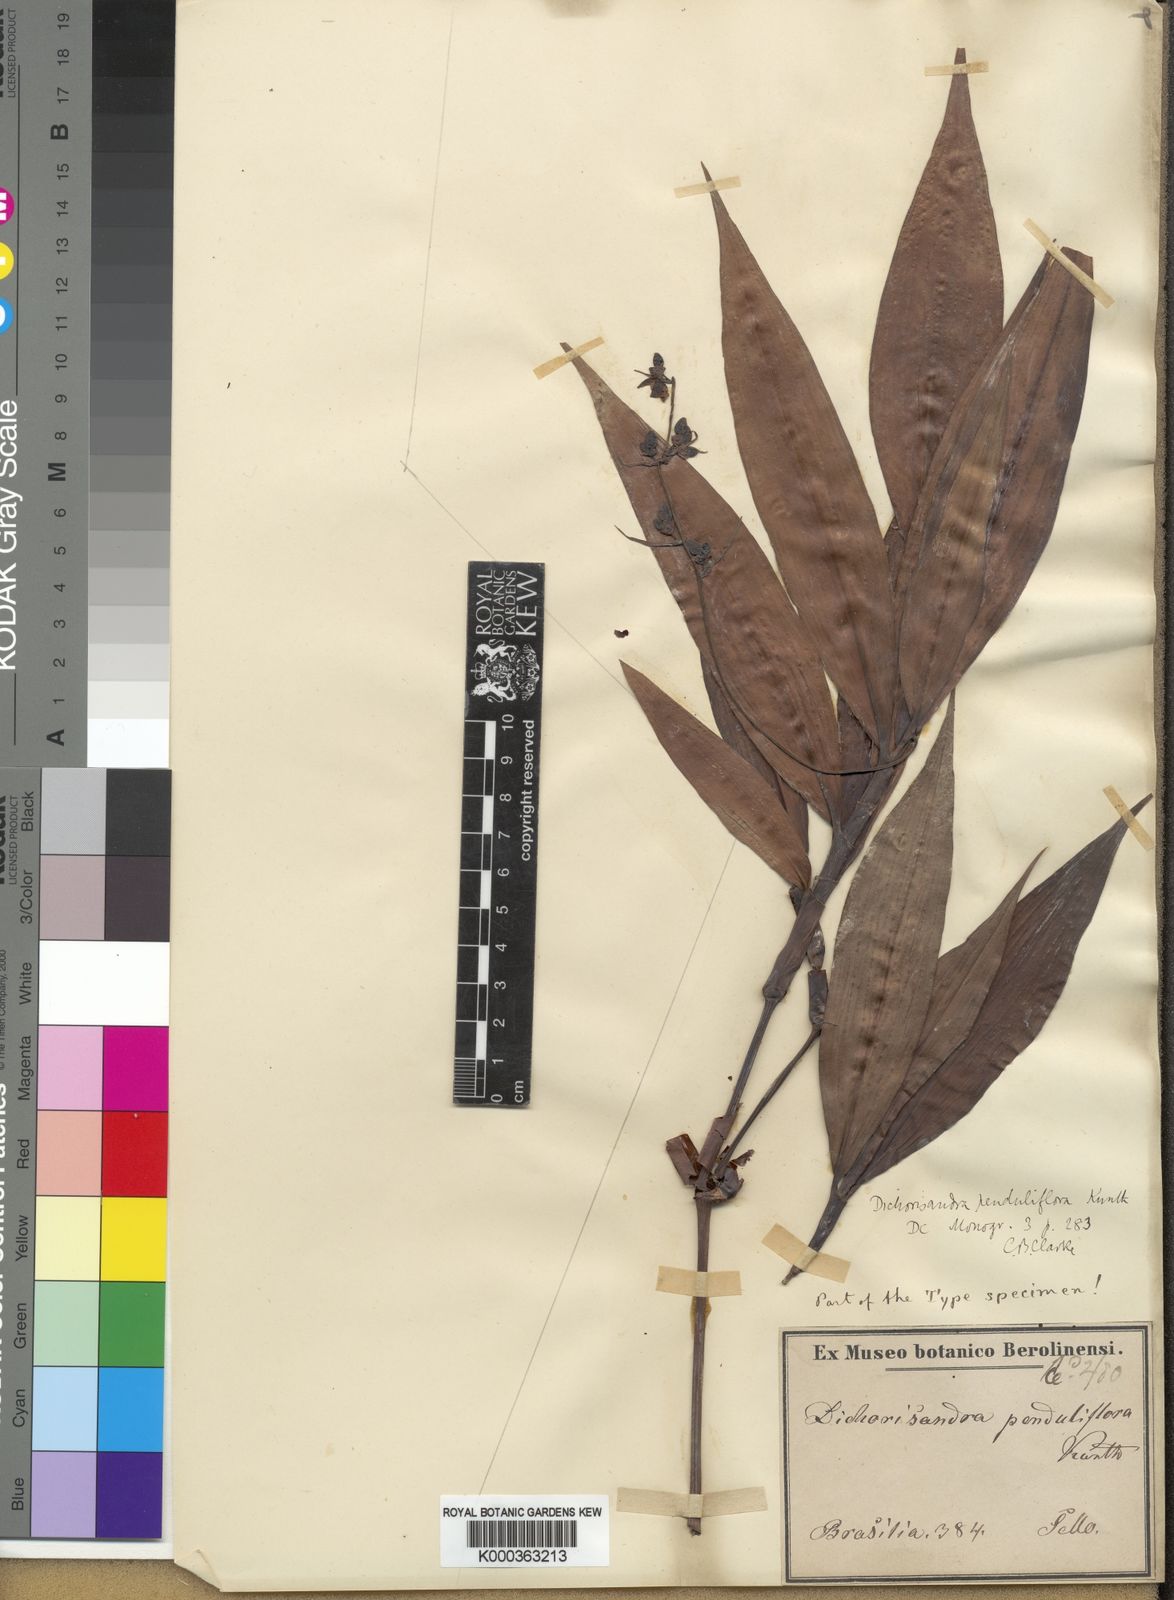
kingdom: Plantae
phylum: Tracheophyta
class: Liliopsida
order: Commelinales
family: Commelinaceae
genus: Dichorisandra
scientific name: Dichorisandra penduliflora
